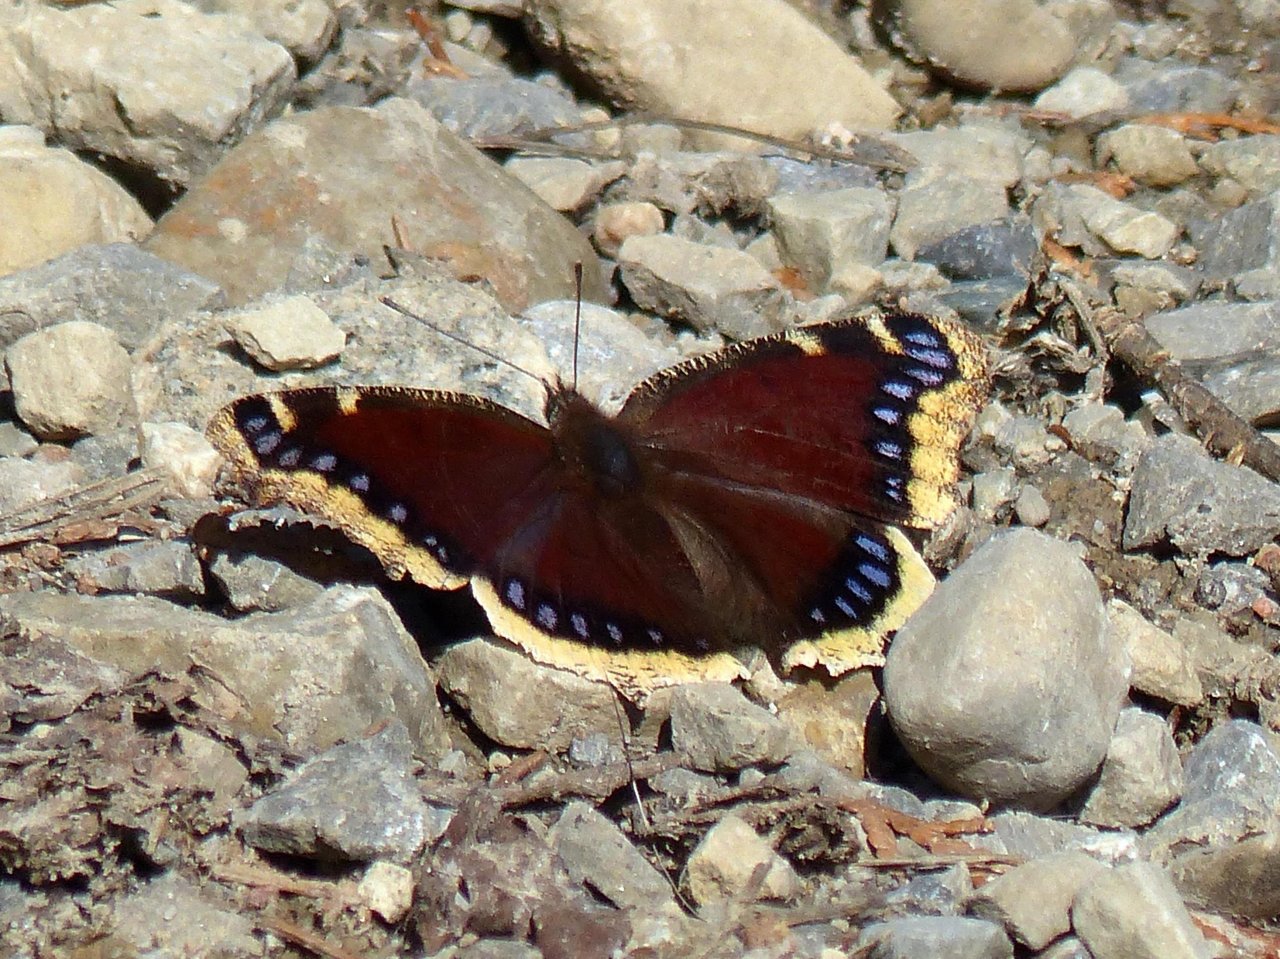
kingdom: Animalia
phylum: Arthropoda
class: Insecta
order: Lepidoptera
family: Nymphalidae
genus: Nymphalis
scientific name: Nymphalis antiopa
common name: Mourning Cloak
